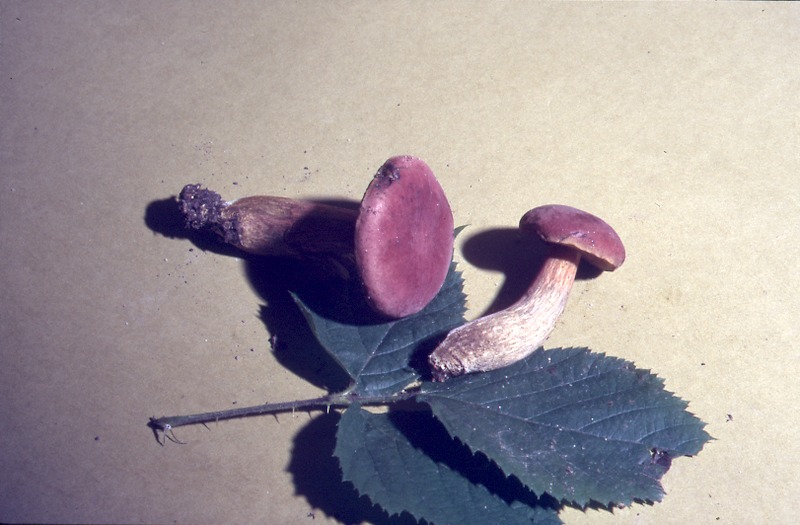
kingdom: Fungi
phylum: Basidiomycota
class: Agaricomycetes
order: Boletales
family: Boletaceae
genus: Hortiboletus
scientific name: Hortiboletus rubellus
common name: Ruby bolete
